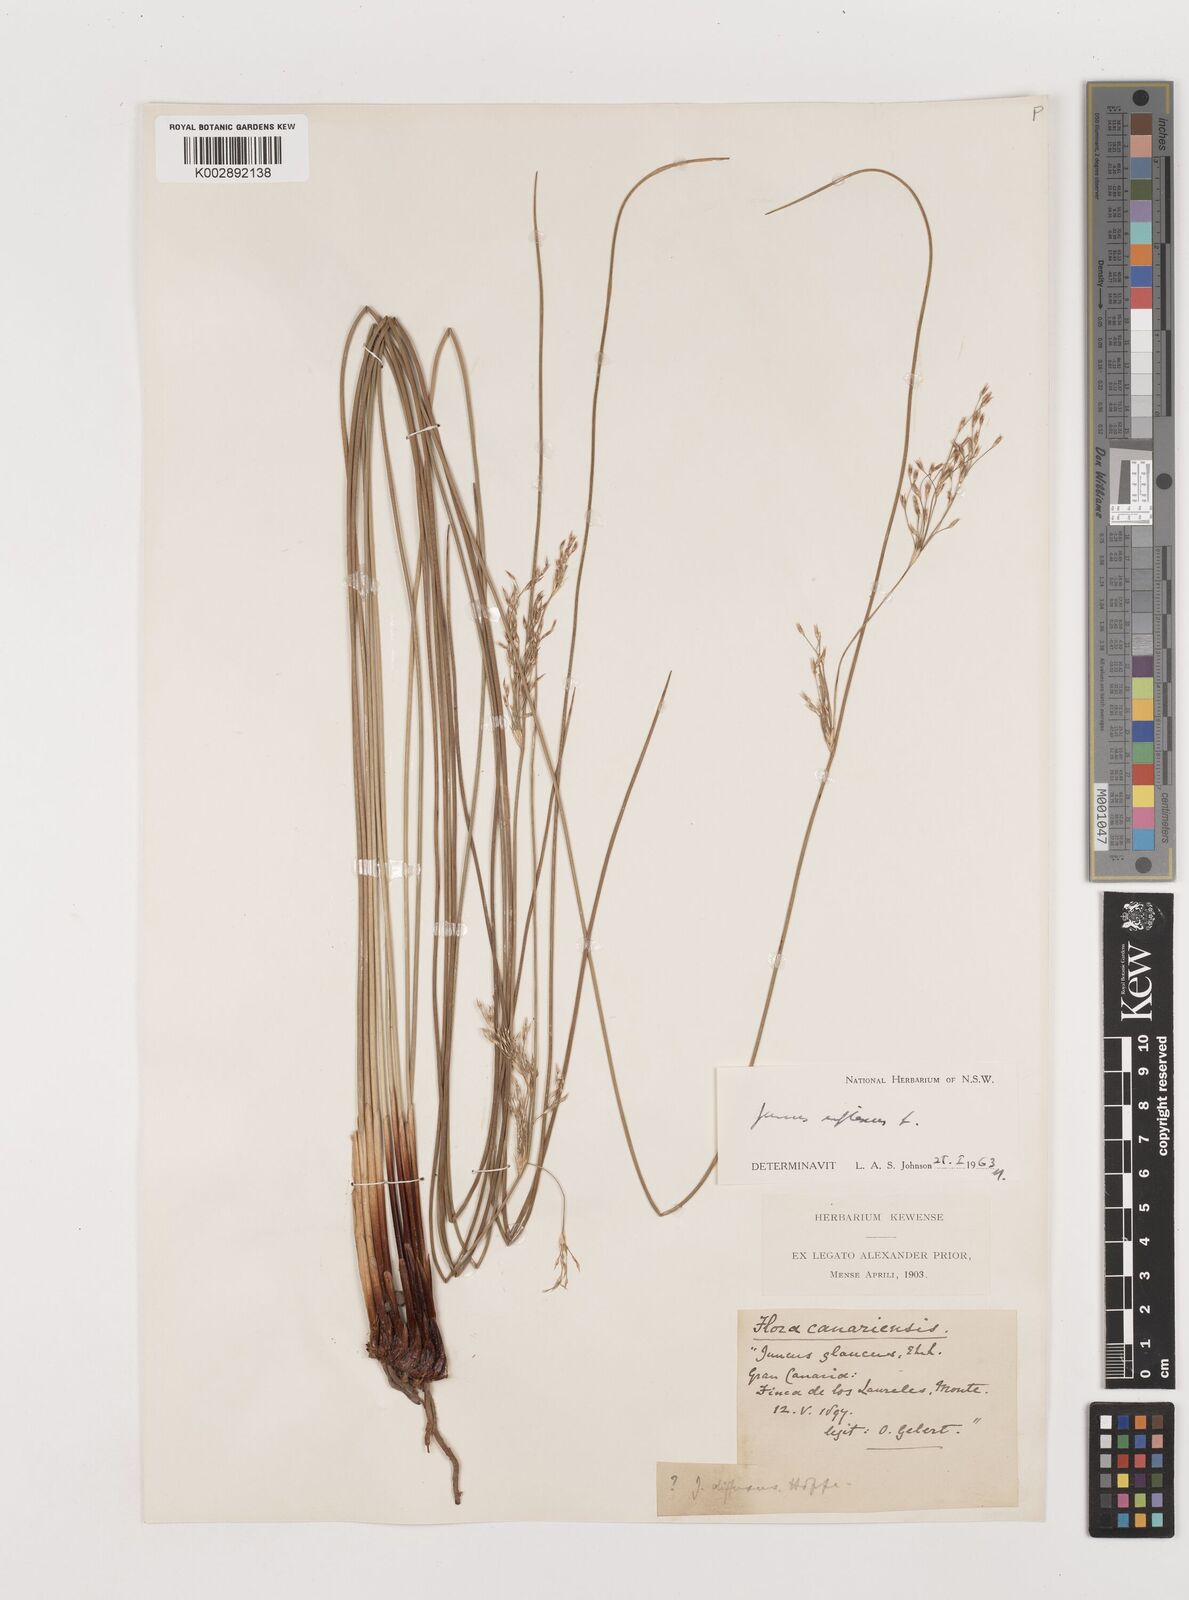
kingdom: Plantae
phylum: Tracheophyta
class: Liliopsida
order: Poales
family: Juncaceae
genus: Juncus
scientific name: Juncus inflexus
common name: Hard rush
